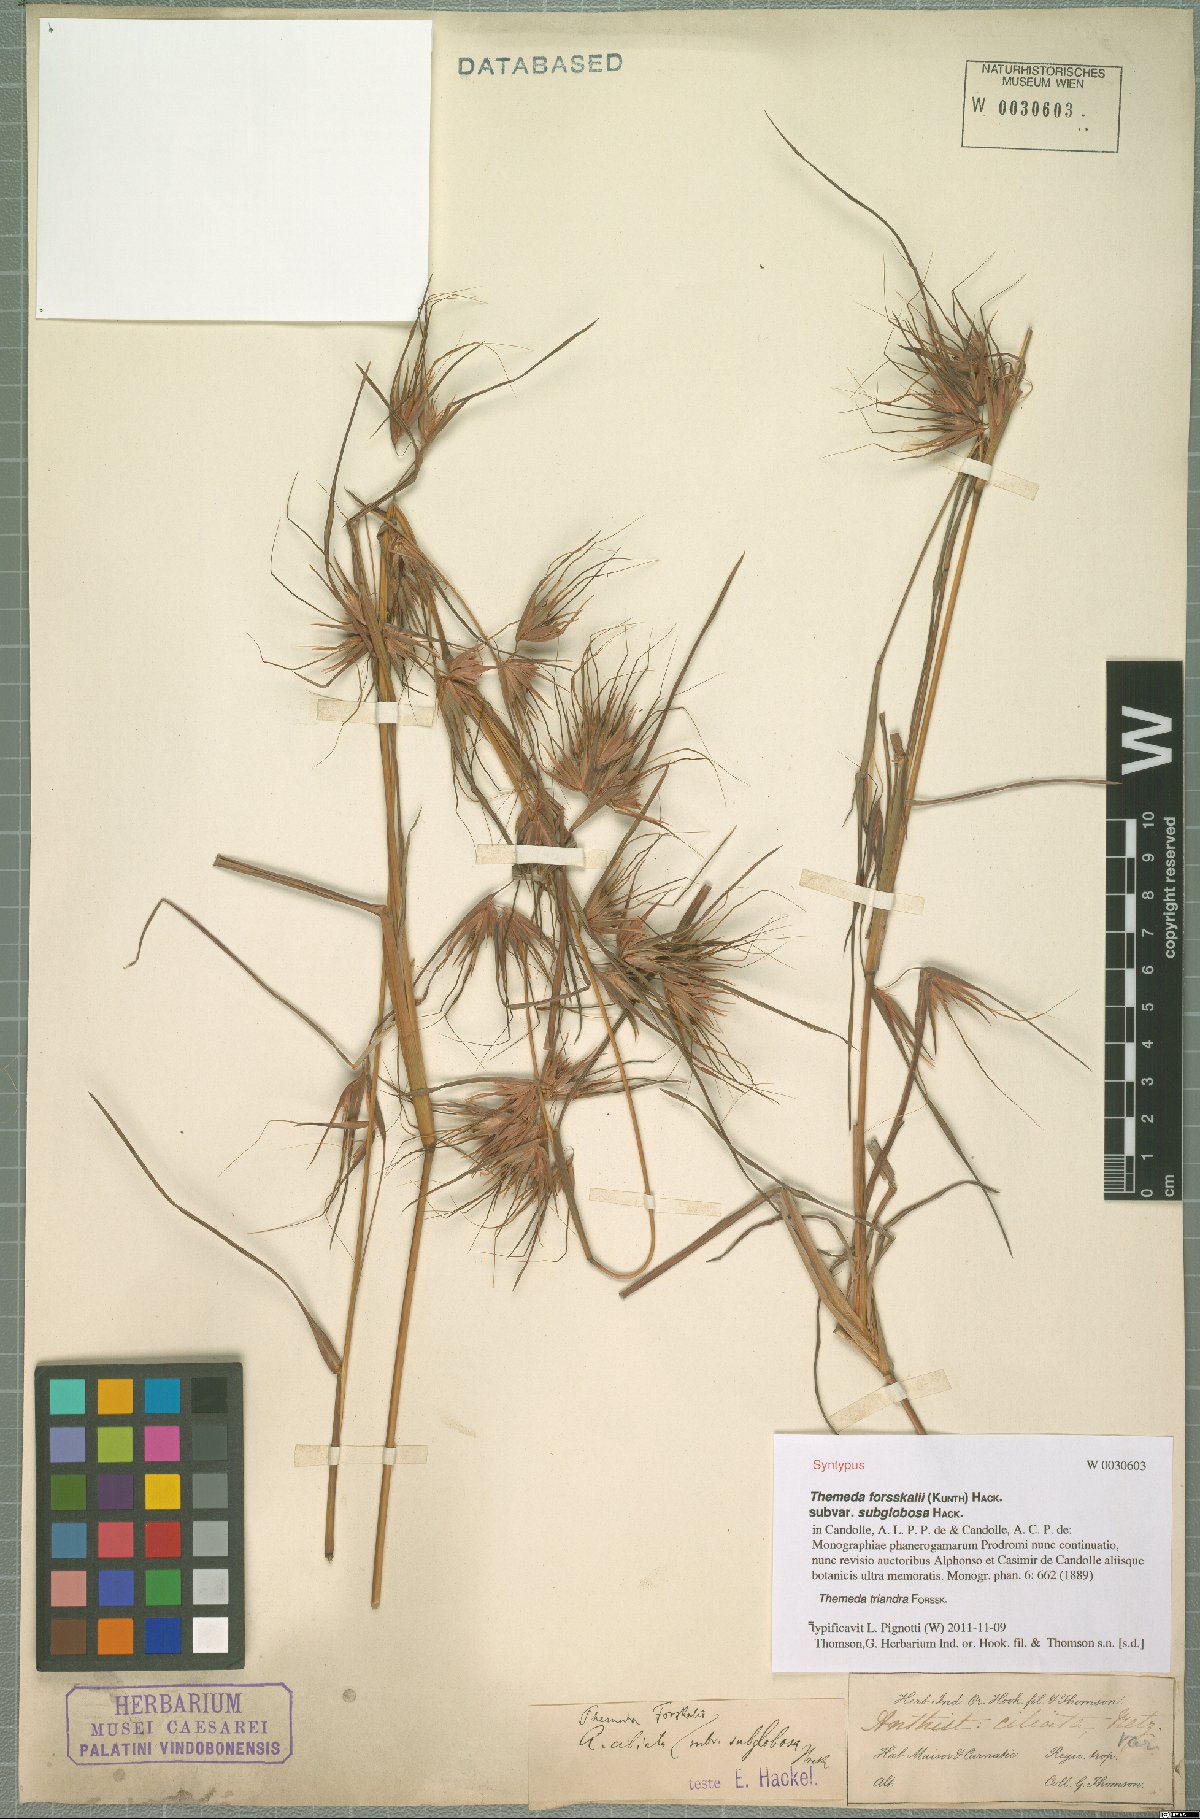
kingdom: Plantae
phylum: Tracheophyta
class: Liliopsida
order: Poales
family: Poaceae
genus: Themeda
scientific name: Themeda triandra
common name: Kangaroo grass
